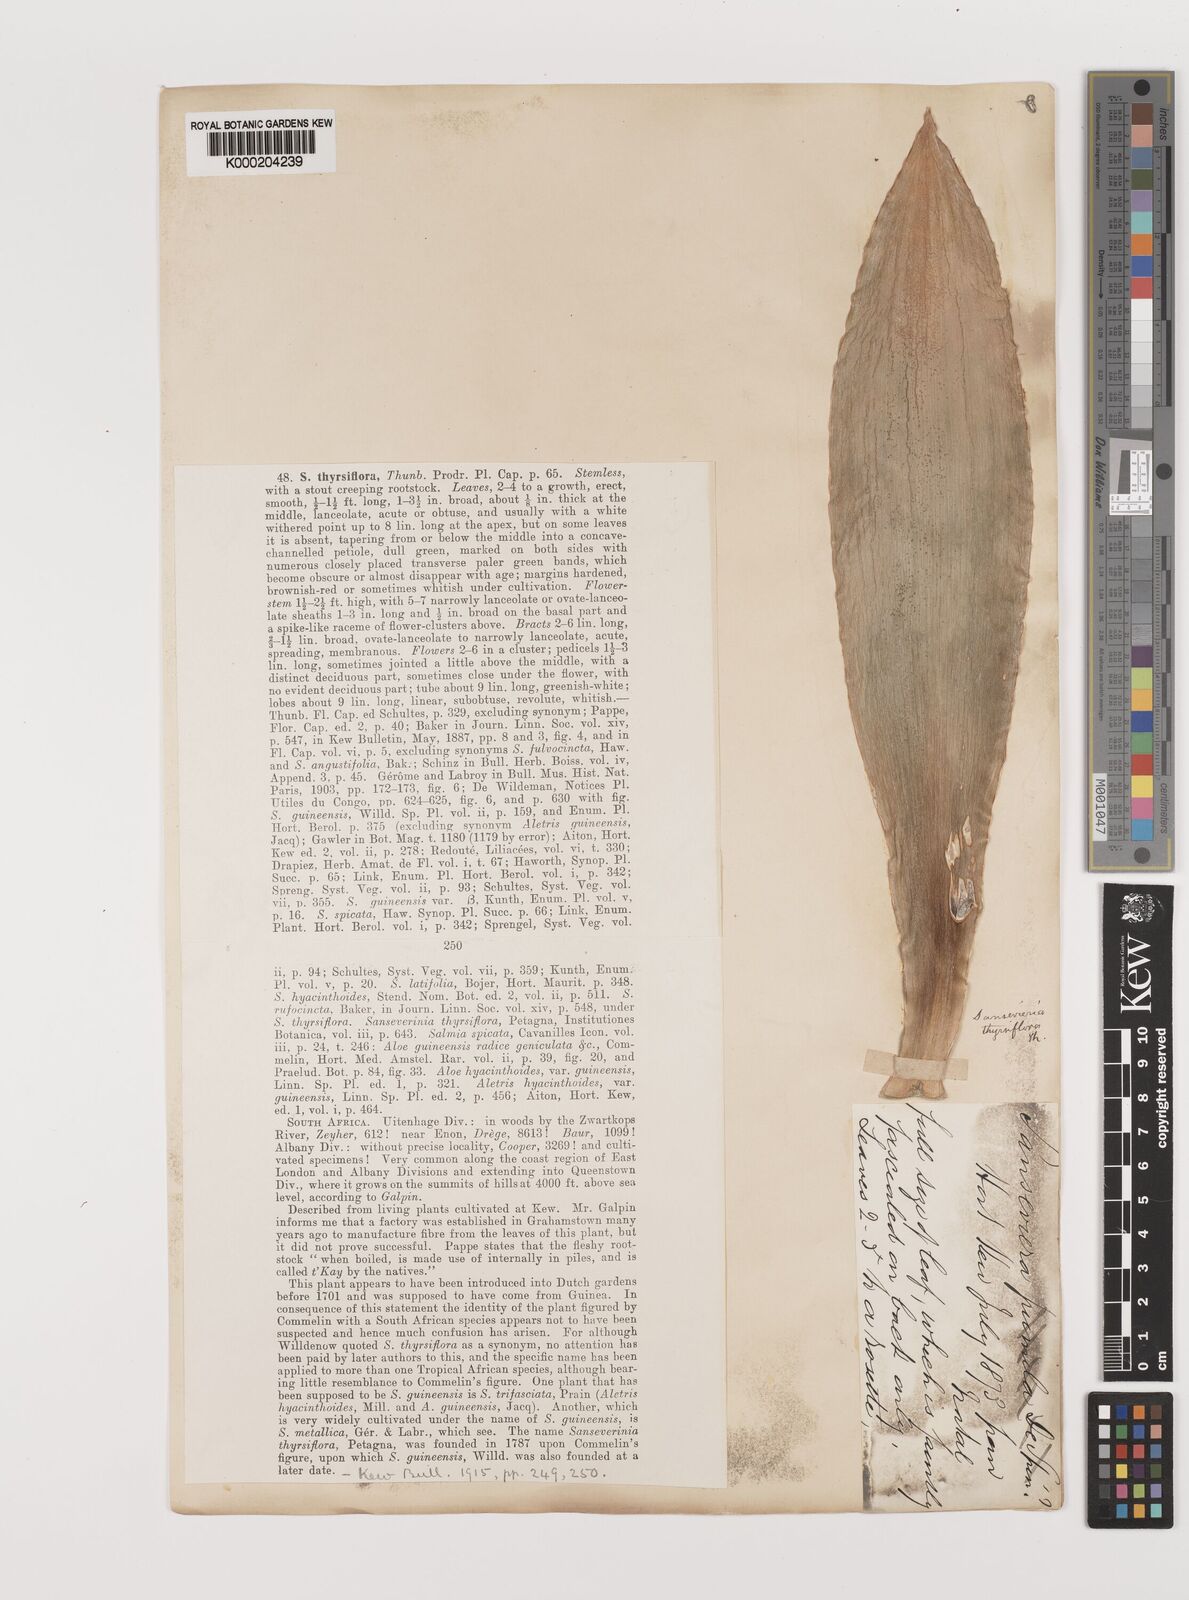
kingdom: Plantae
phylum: Tracheophyta
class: Liliopsida
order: Asparagales
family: Asparagaceae
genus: Dracaena
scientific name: Dracaena hyacinthoides
